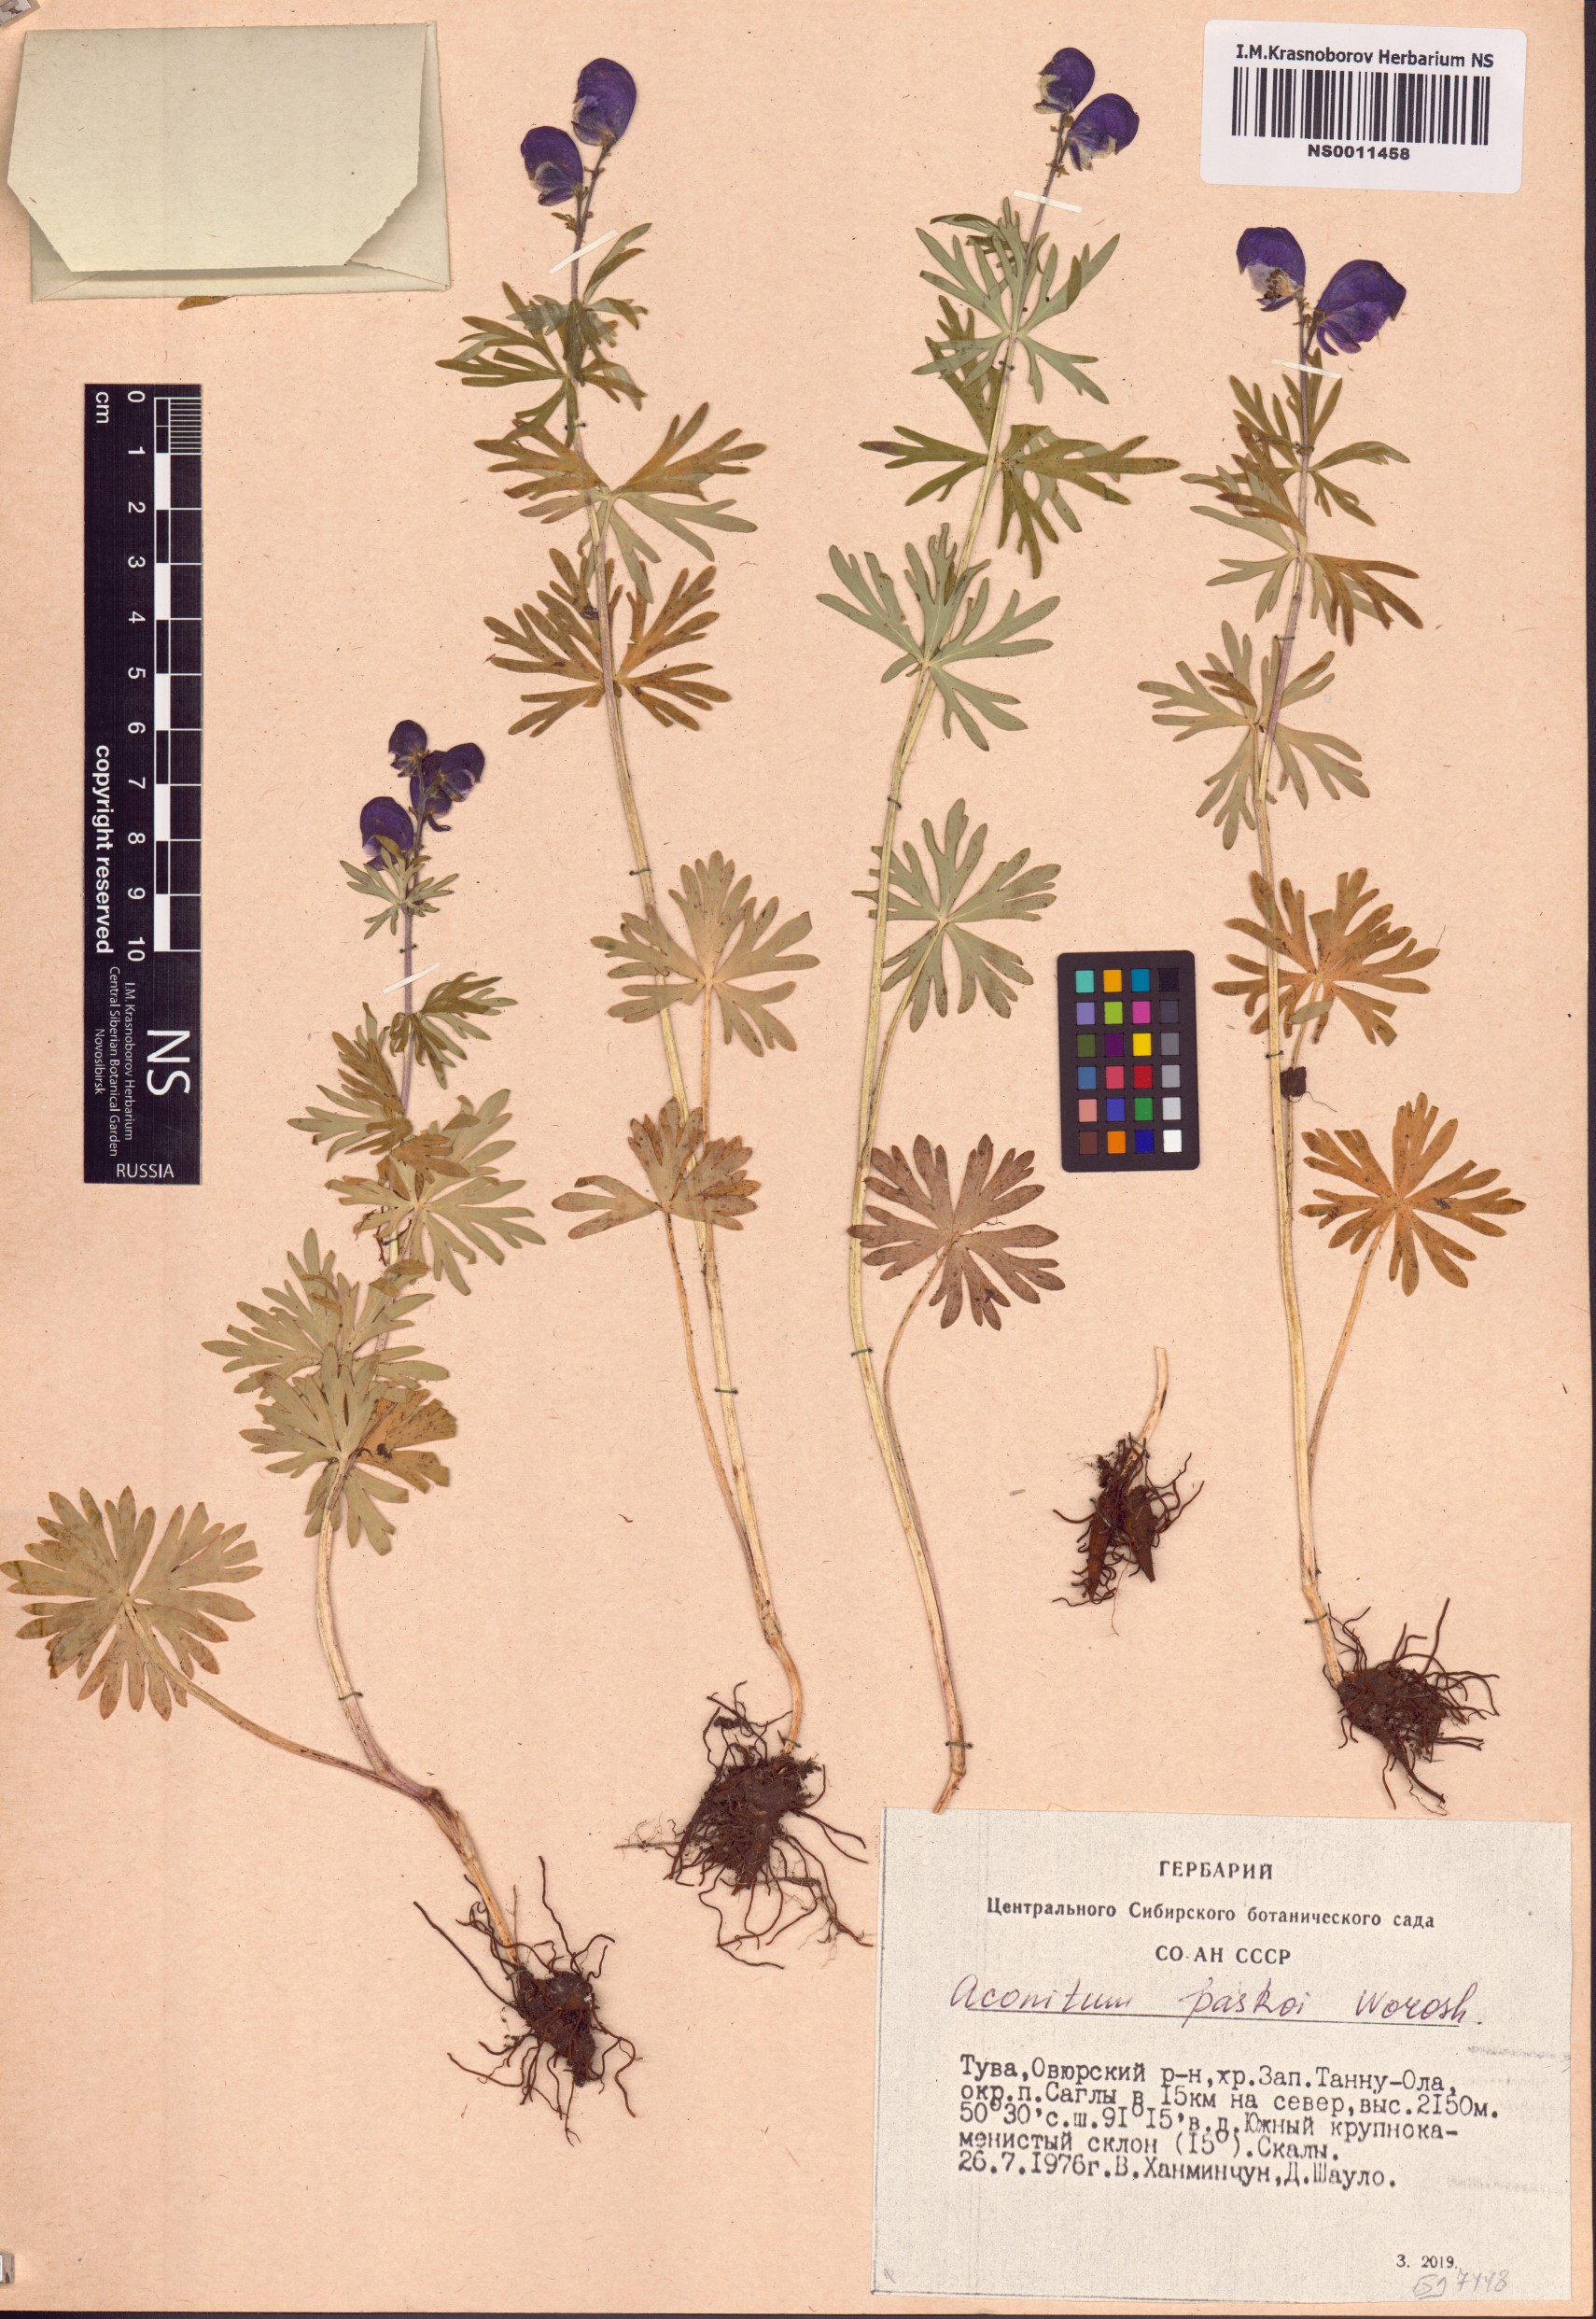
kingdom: Plantae
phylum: Tracheophyta
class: Magnoliopsida
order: Ranunculales
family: Ranunculaceae
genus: Aconitum
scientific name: Aconitum pascoi
